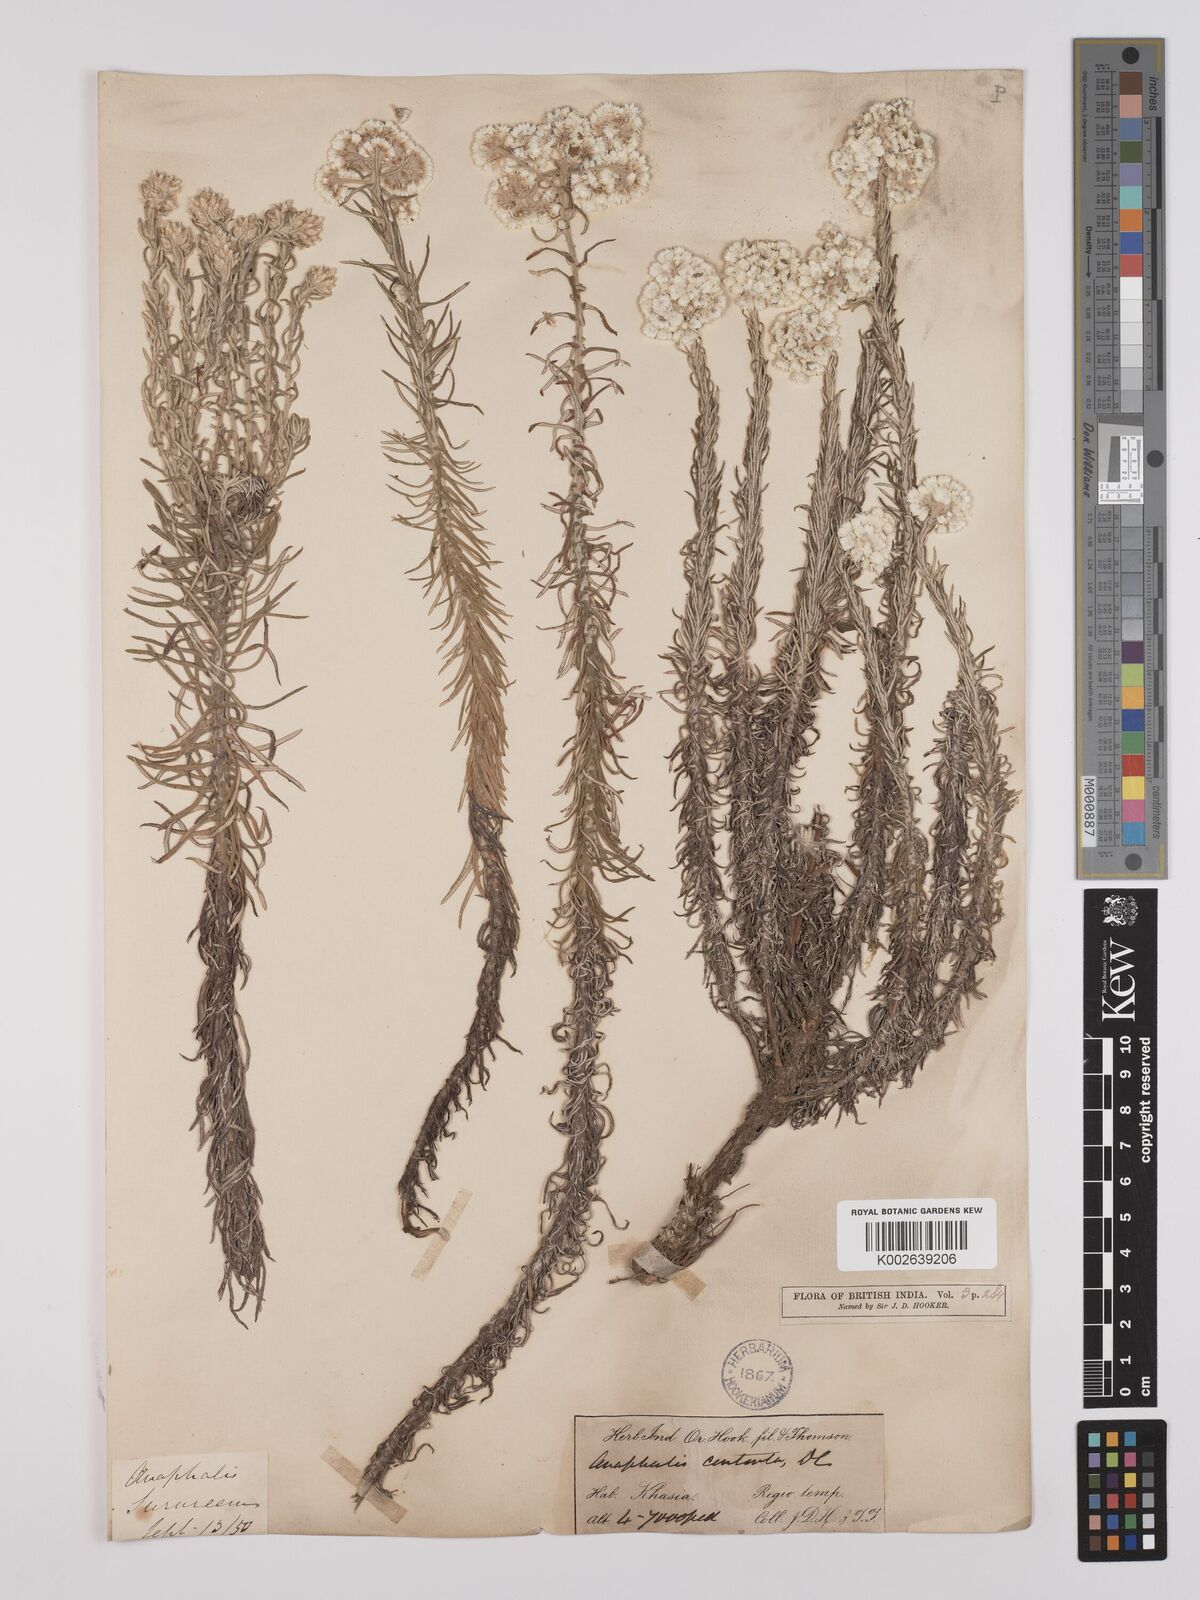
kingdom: Plantae
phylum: Tracheophyta
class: Magnoliopsida
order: Asterales
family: Asteraceae
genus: Anaphalis
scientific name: Anaphalis contorta
